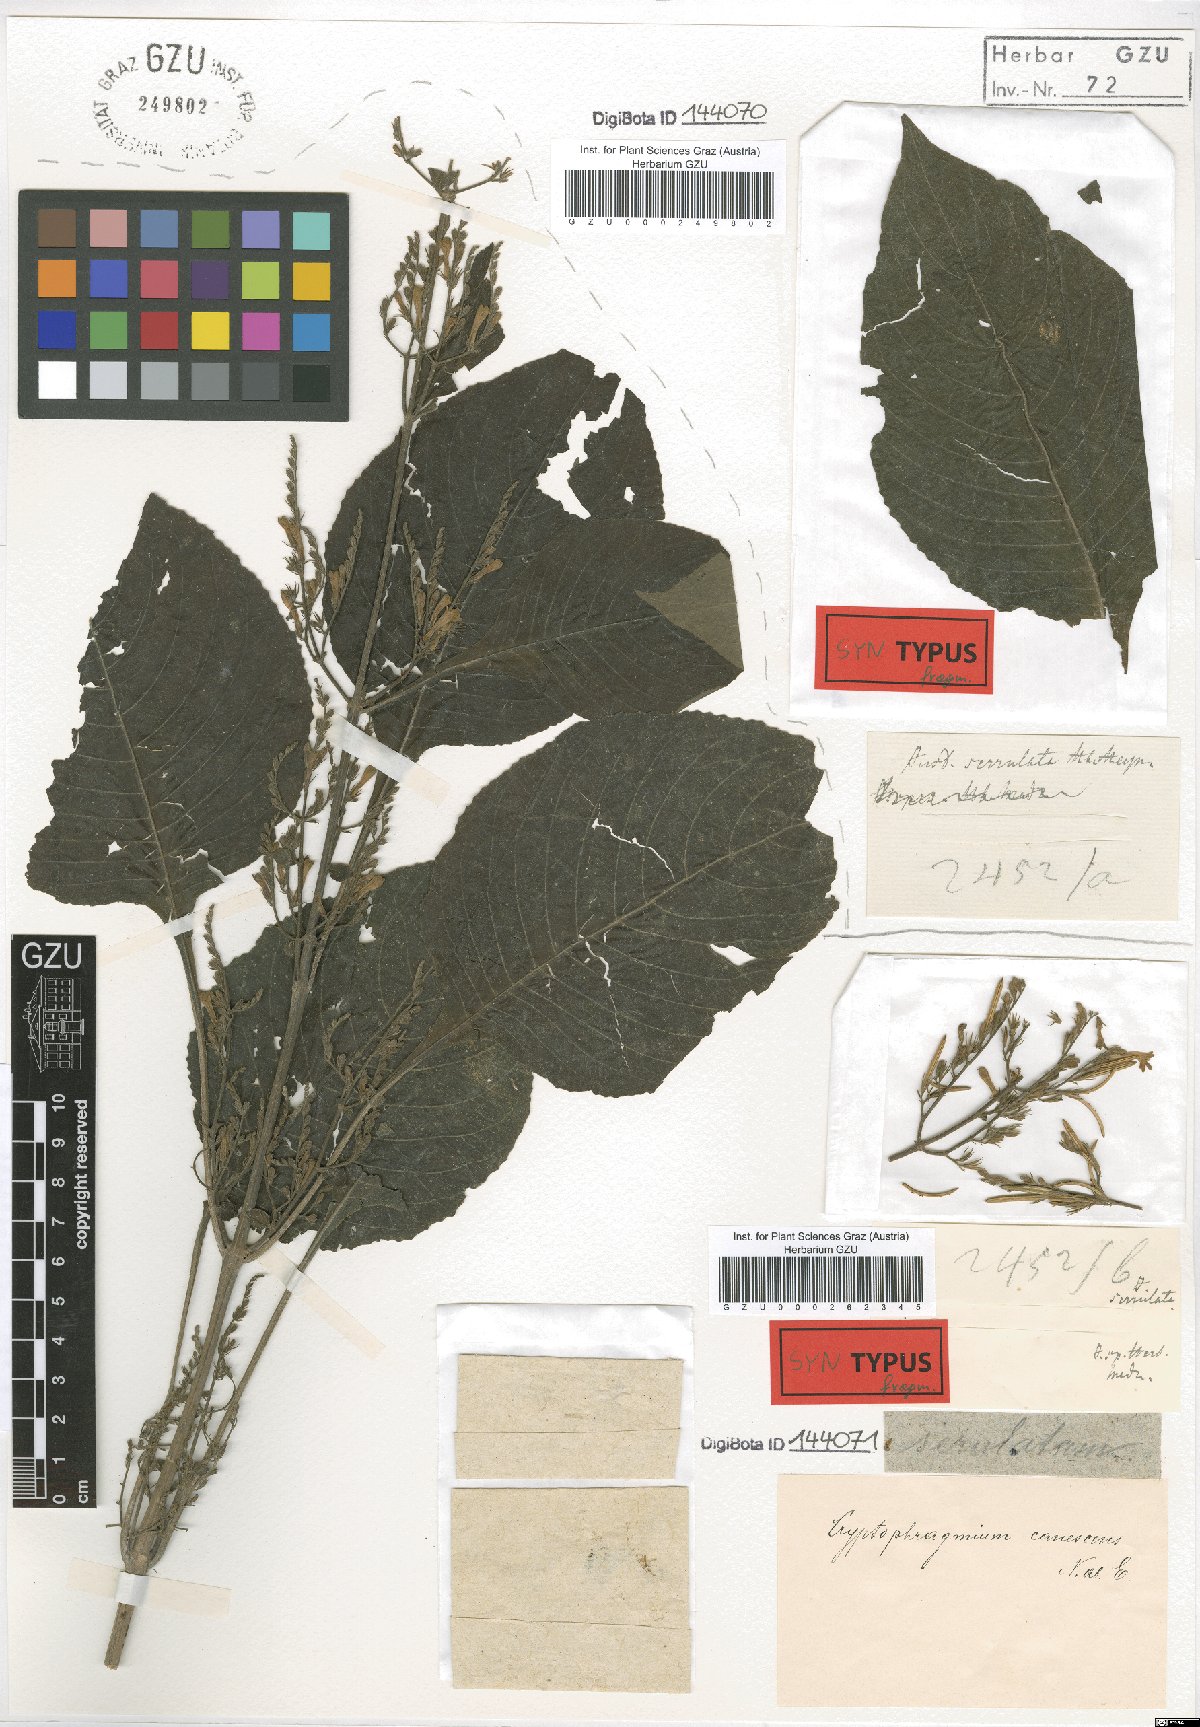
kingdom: Plantae
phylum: Tracheophyta
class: Magnoliopsida
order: Lamiales
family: Acanthaceae
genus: Gymnostachyum
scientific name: Gymnostachyum pubescens
